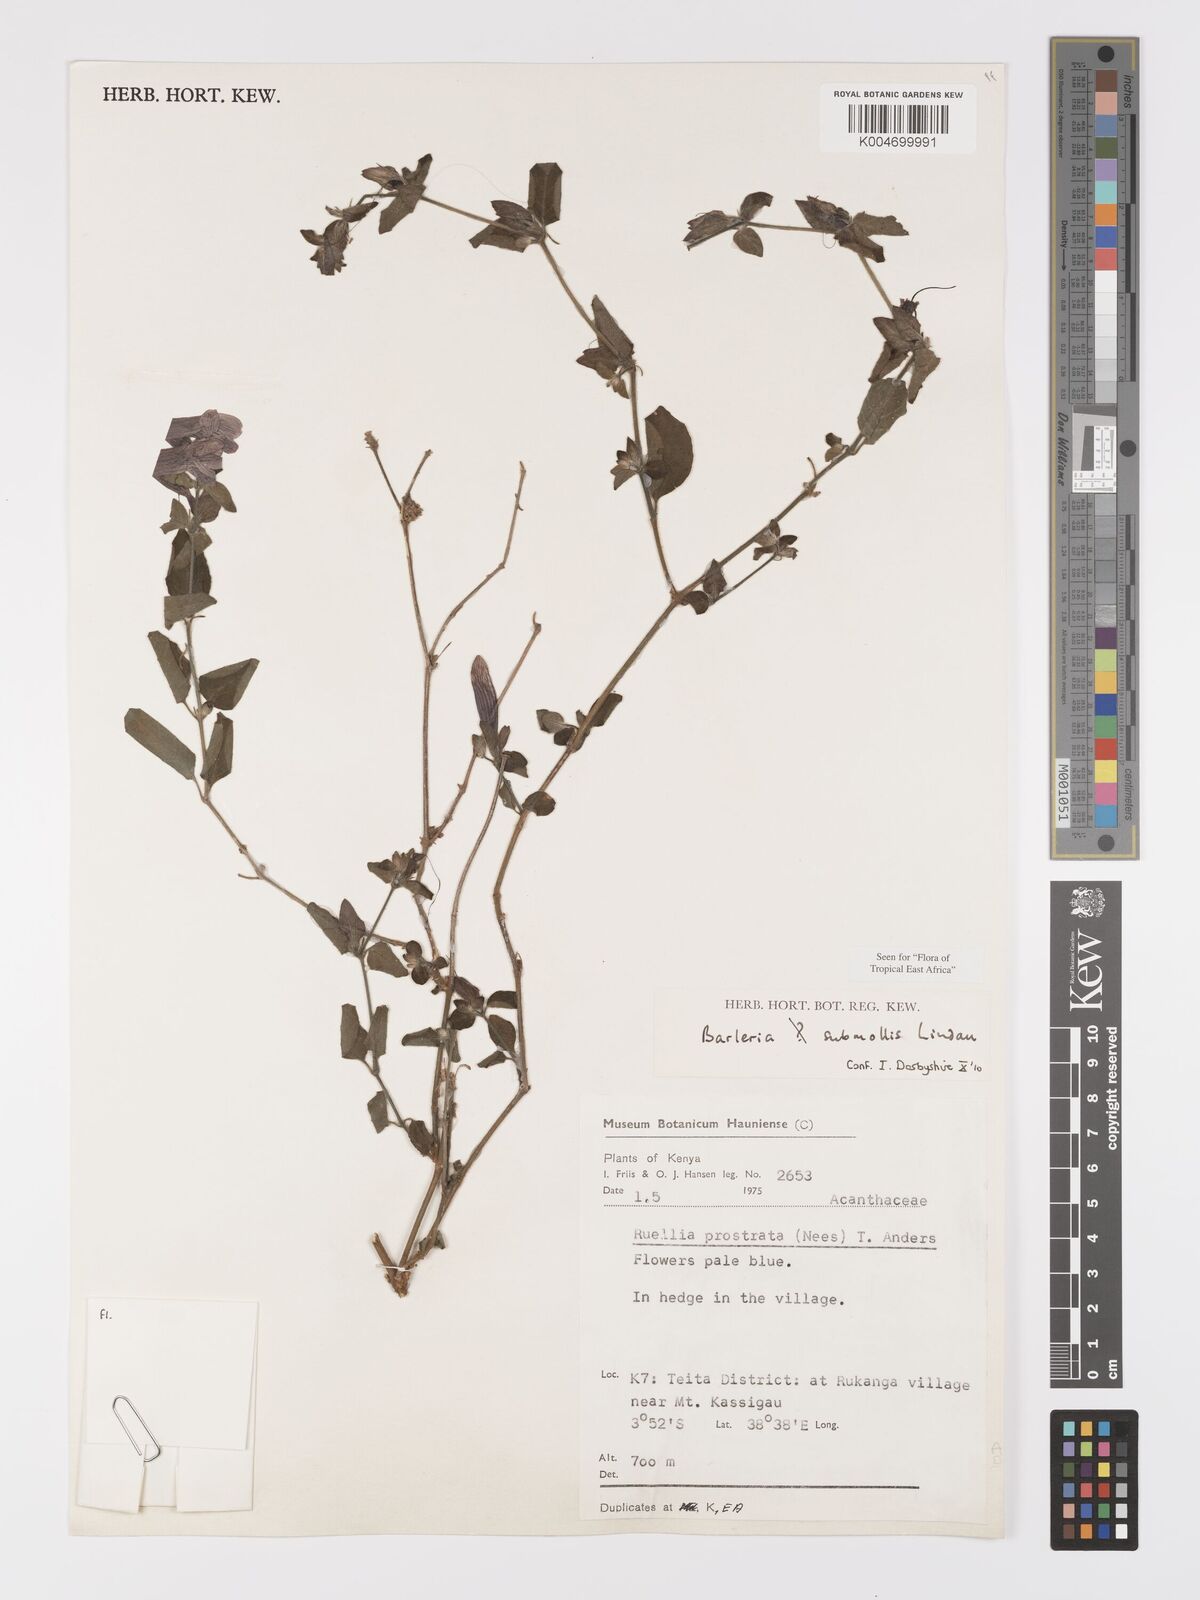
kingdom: Plantae
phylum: Tracheophyta
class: Magnoliopsida
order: Lamiales
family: Acanthaceae
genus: Barleria
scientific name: Barleria submollis
